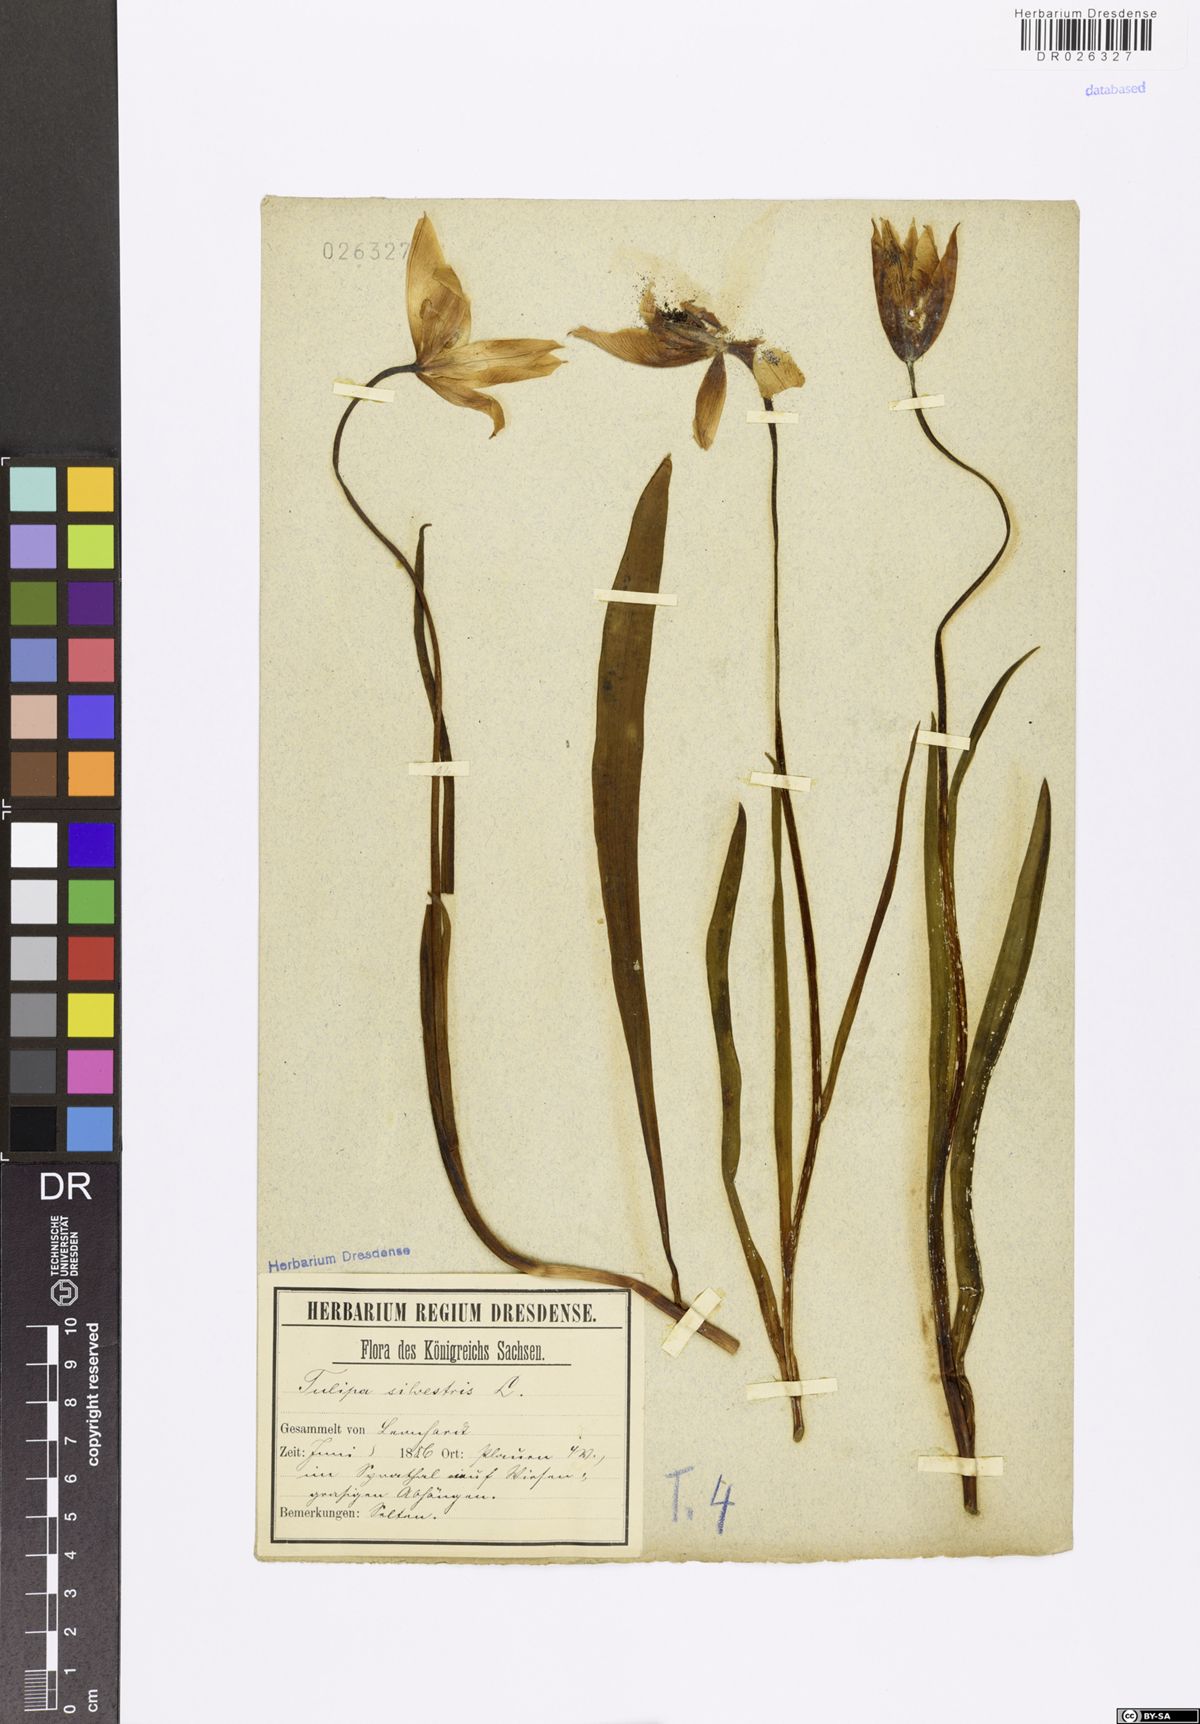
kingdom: Plantae
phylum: Tracheophyta
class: Liliopsida
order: Liliales
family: Liliaceae
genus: Tulipa
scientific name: Tulipa sylvestris
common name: Wild tulip
